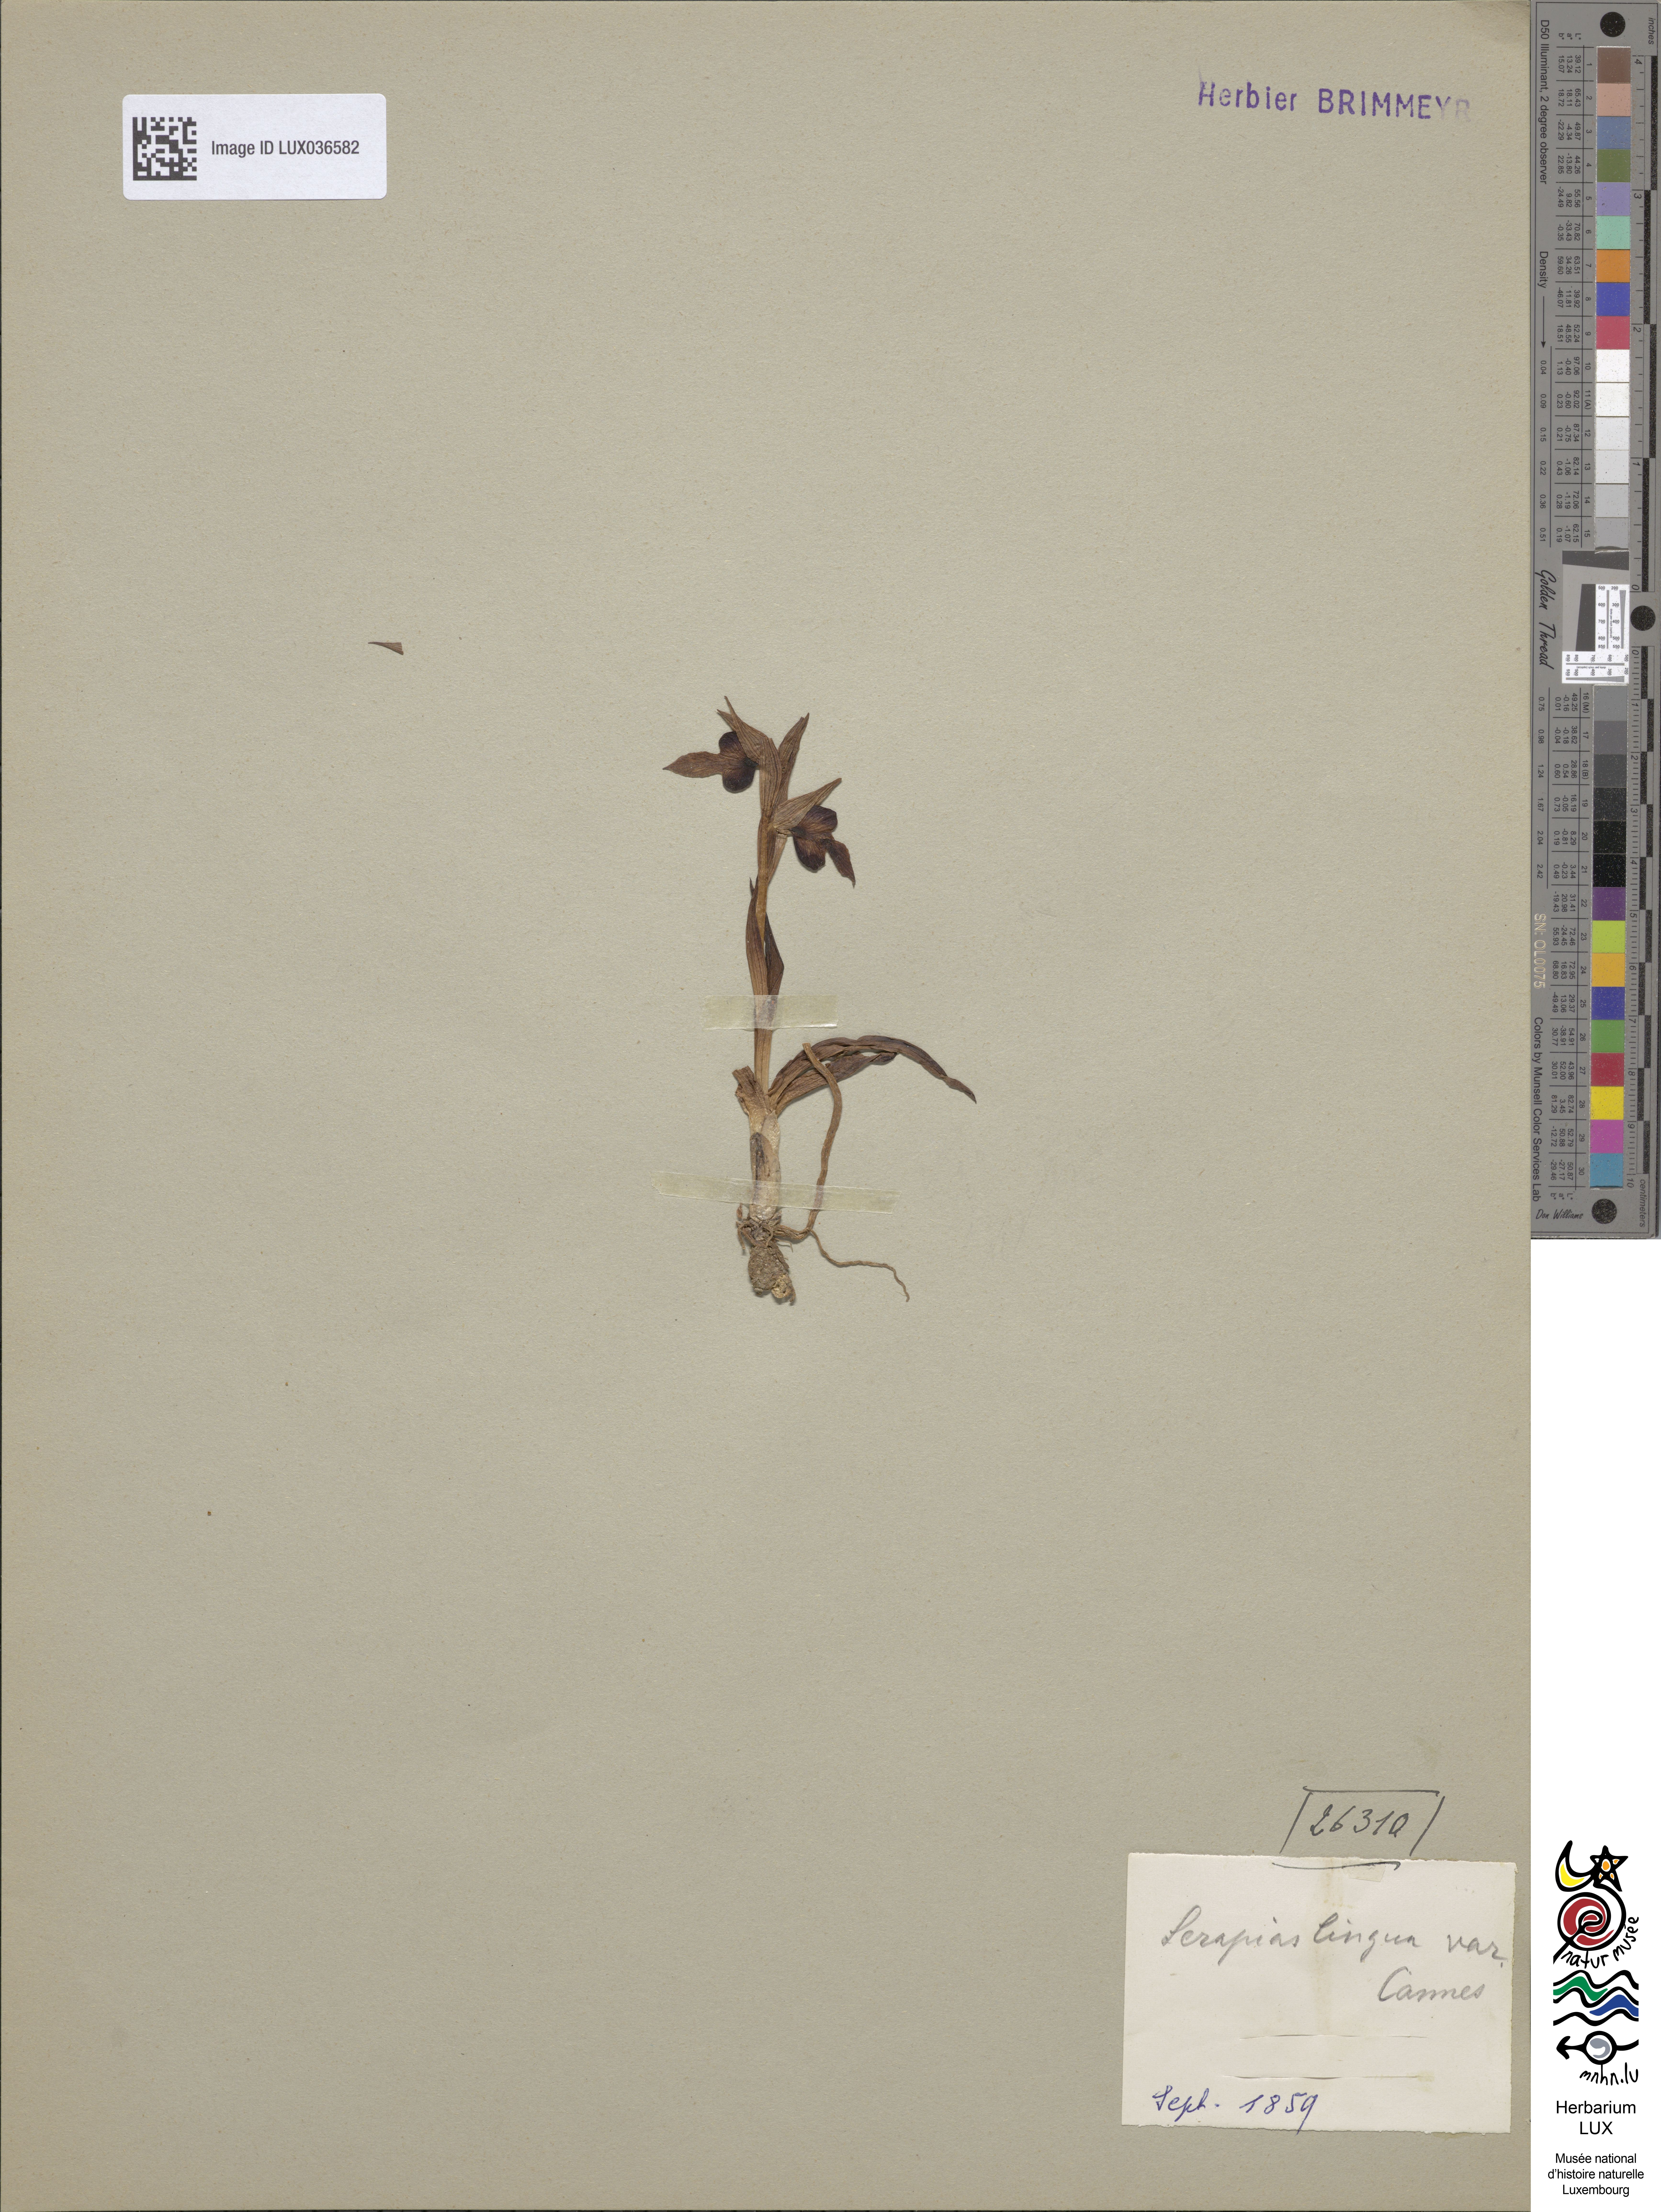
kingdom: Plantae
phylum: Tracheophyta
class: Liliopsida
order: Asparagales
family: Orchidaceae
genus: Serapias
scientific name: Serapias lingua
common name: Tongue-orchid
